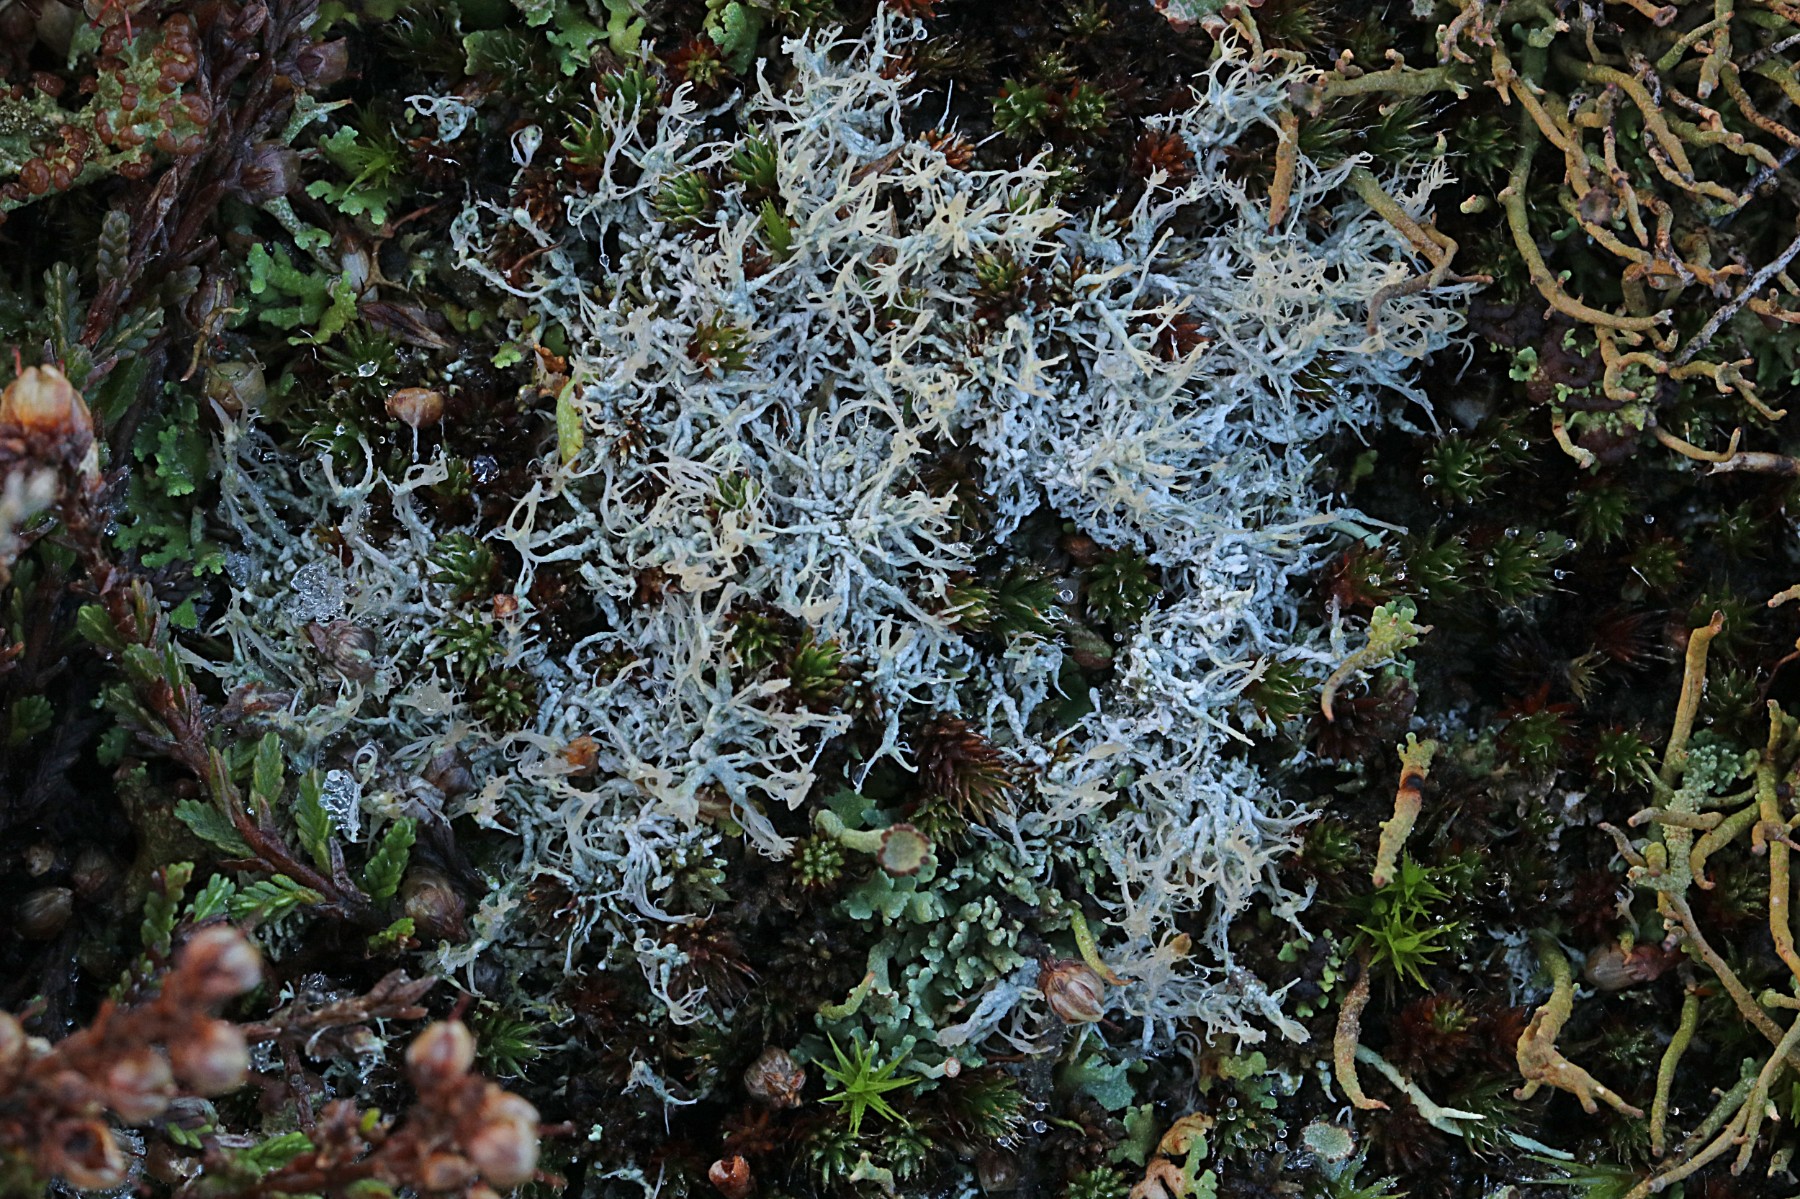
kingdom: Fungi
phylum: Ascomycota
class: Lecanoromycetes
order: Pertusariales
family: Ochrolechiaceae
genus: Ochrolechia
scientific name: Ochrolechia frigida
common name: fjeld-blegskivelav
